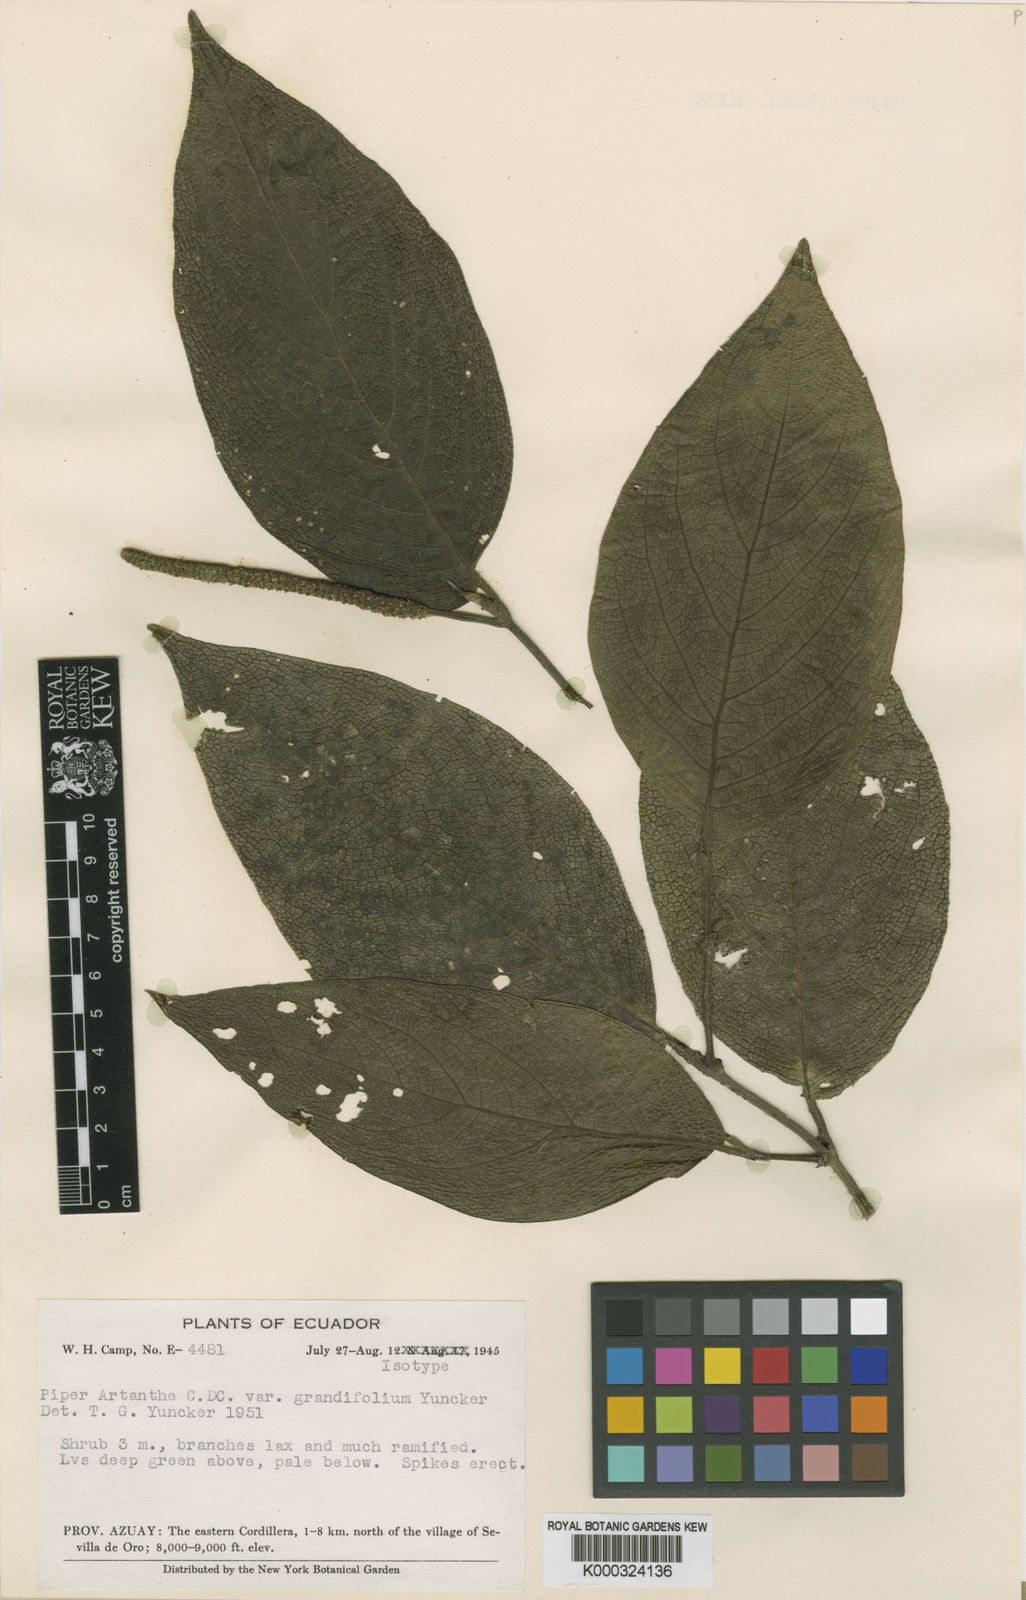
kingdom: Plantae
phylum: Tracheophyta
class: Magnoliopsida
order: Piperales
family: Piperaceae
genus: Piper
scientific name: Piper prunifolium
